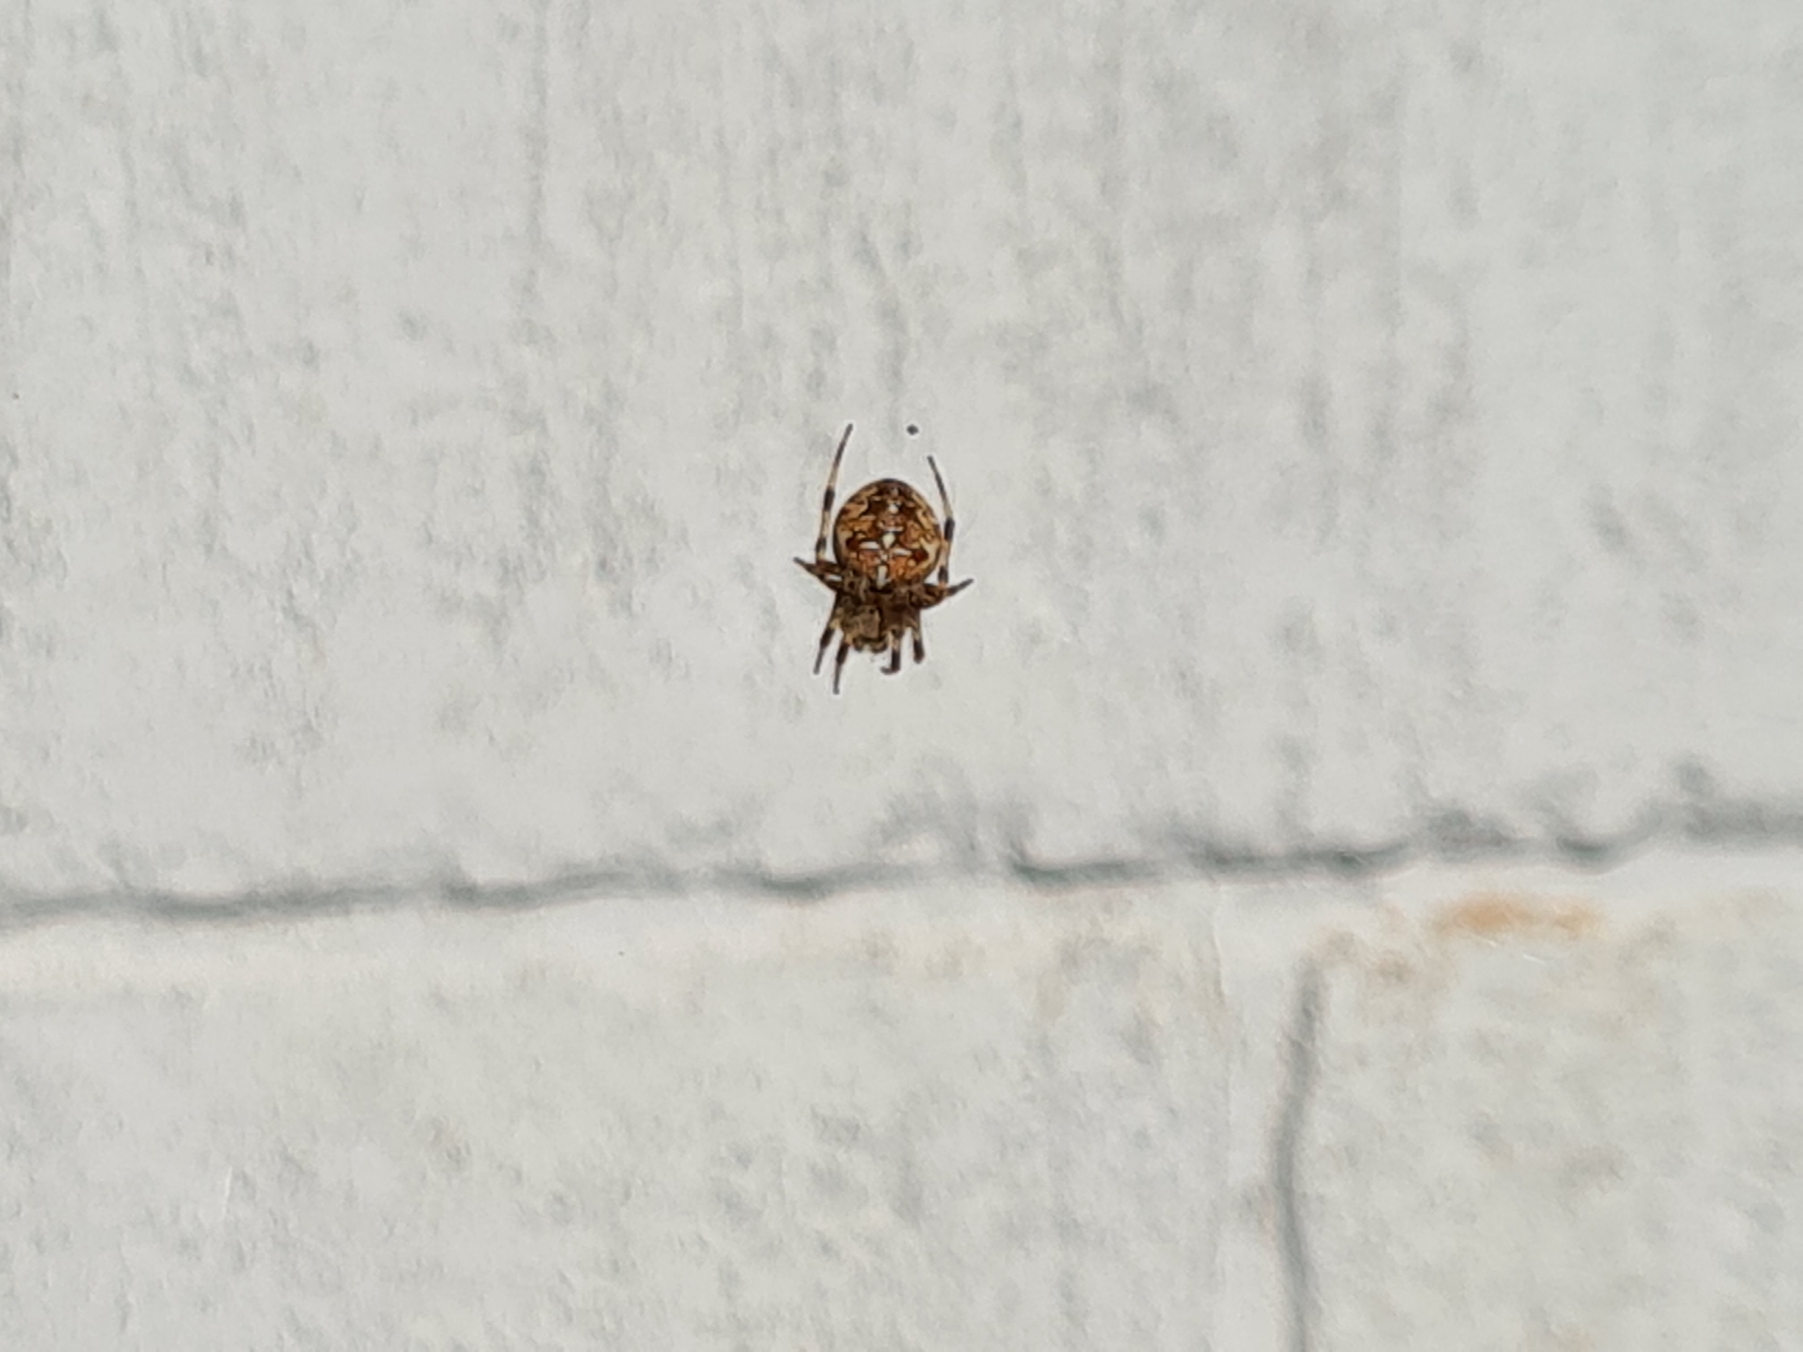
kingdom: Animalia
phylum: Arthropoda
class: Arachnida
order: Araneae
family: Araneidae
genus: Araneus
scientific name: Araneus diadematus
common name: Korsedderkop
